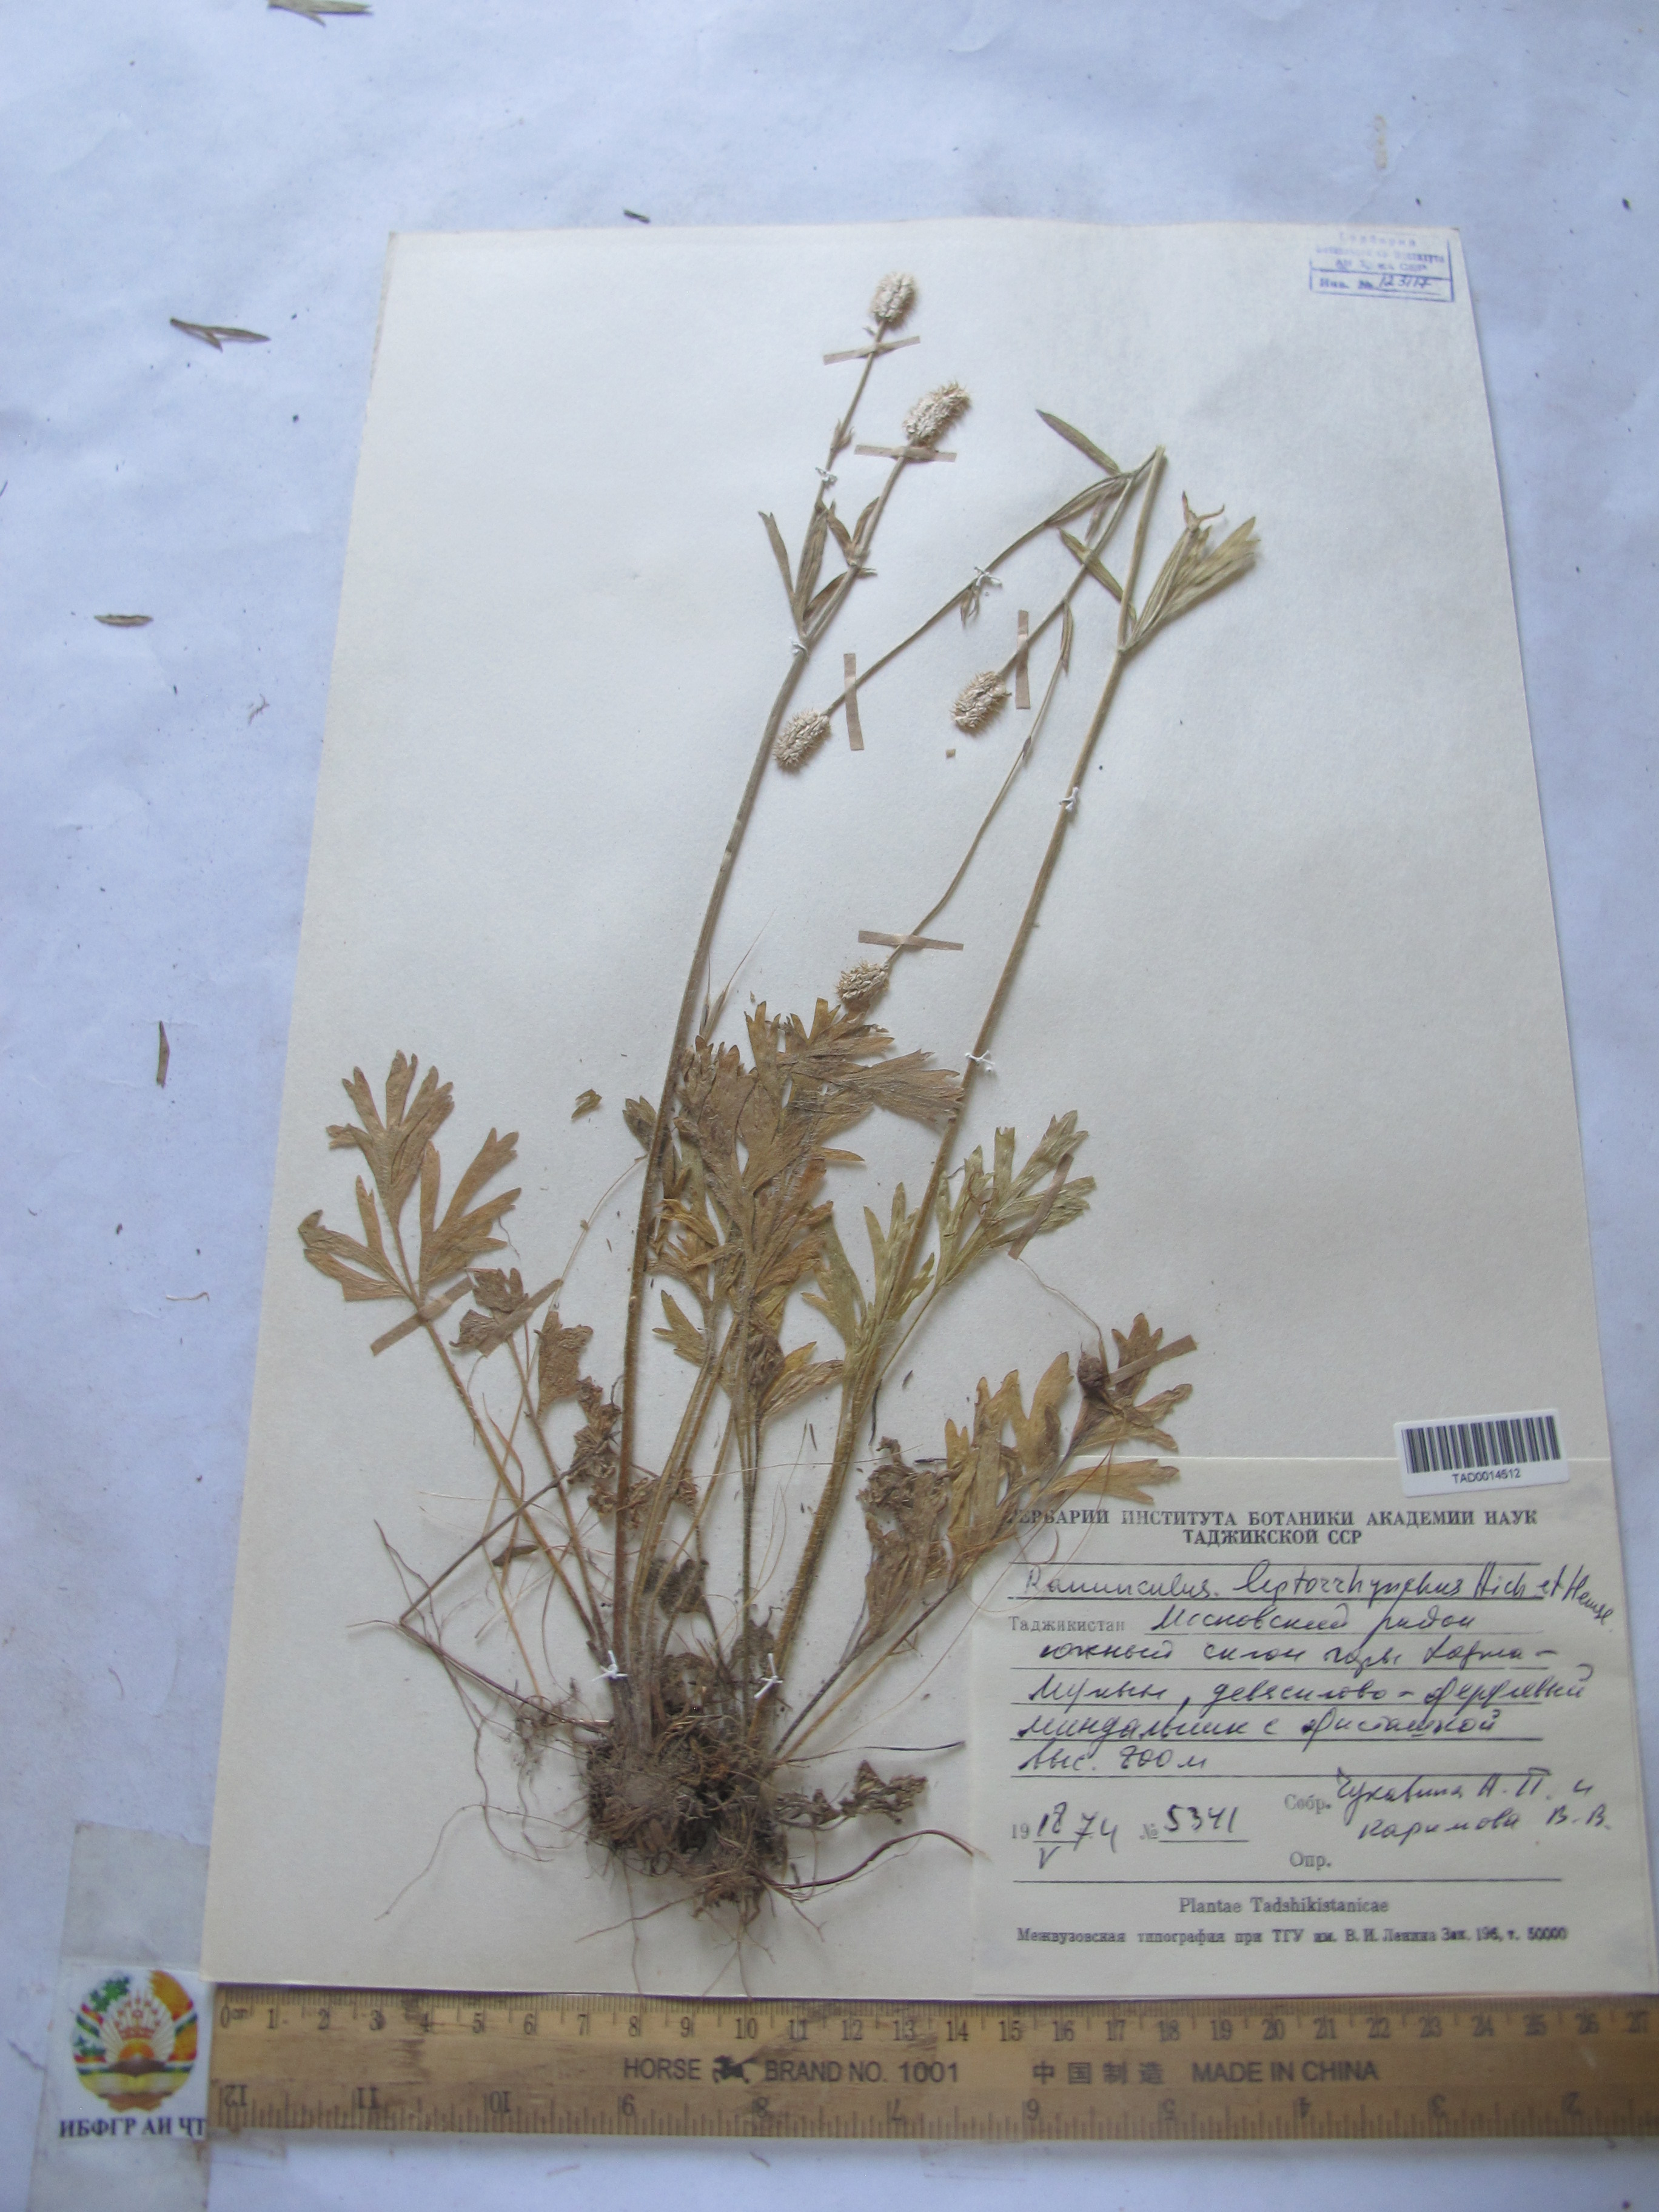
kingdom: Plantae
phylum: Tracheophyta
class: Magnoliopsida
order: Ranunculales
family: Ranunculaceae
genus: Ranunculus
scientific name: Ranunculus leptorrhynchus
